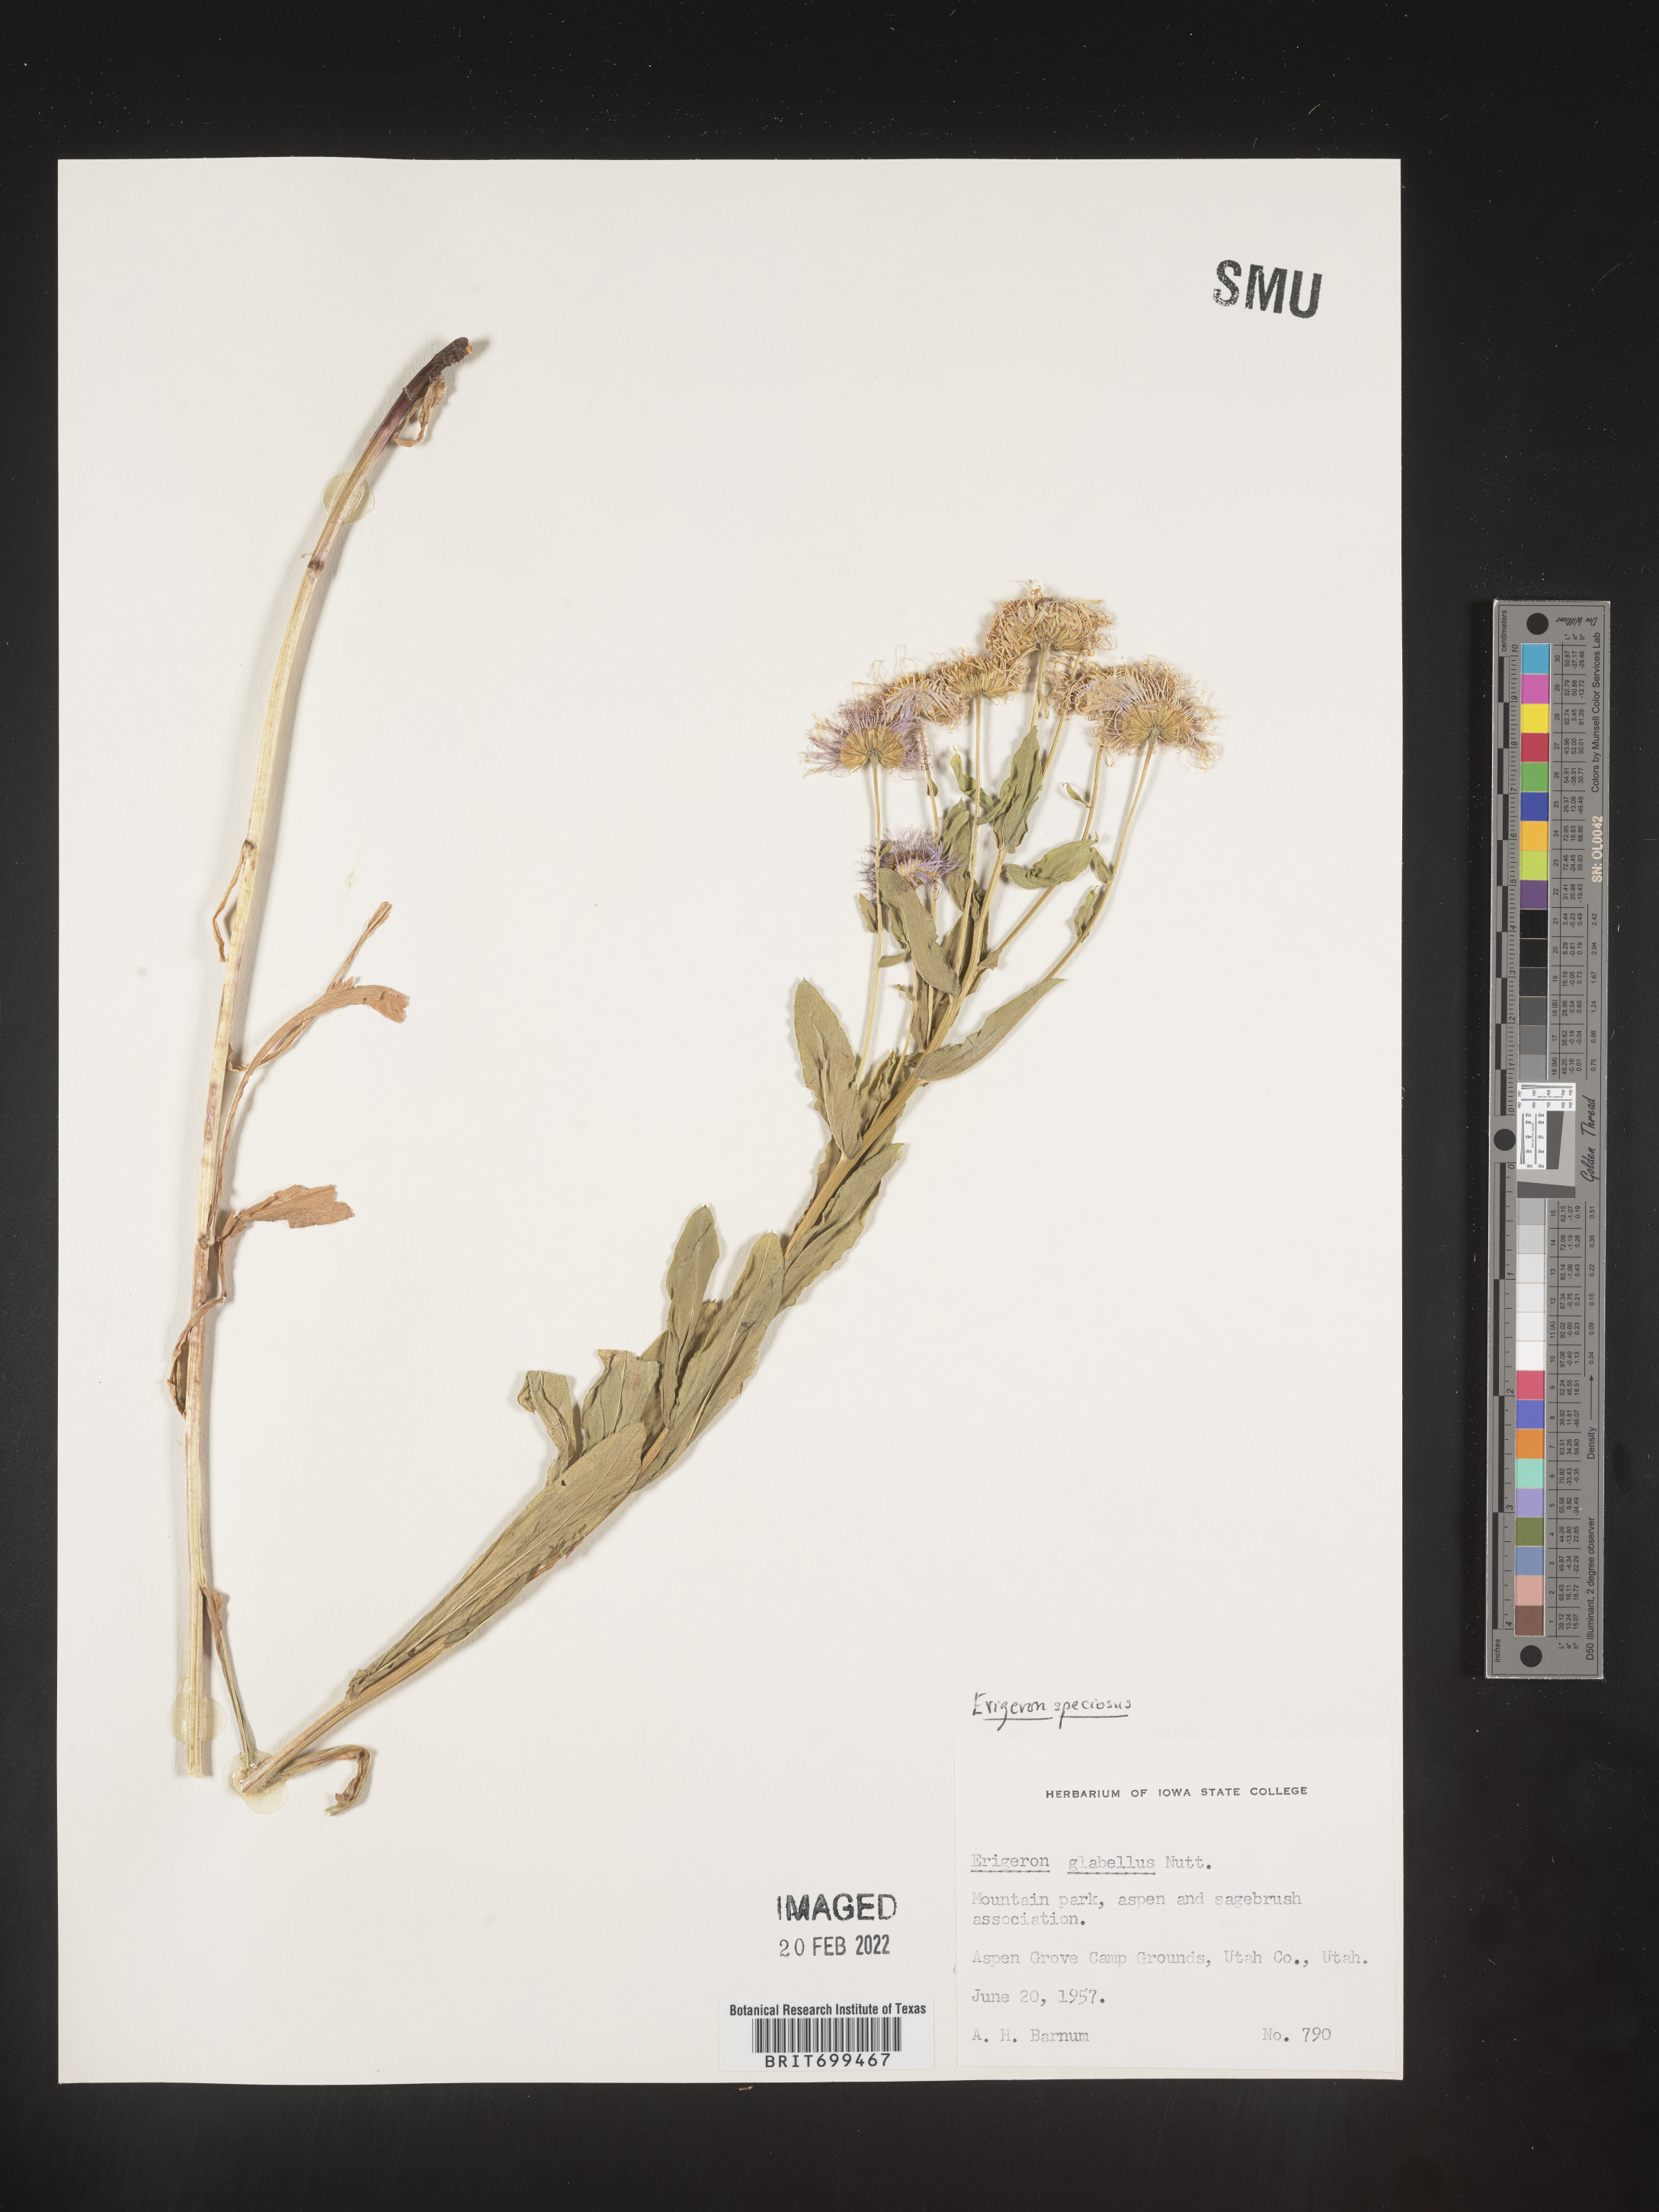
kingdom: Plantae
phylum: Tracheophyta
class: Magnoliopsida
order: Asterales
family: Asteraceae
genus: Erigeron
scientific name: Erigeron speciosus
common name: Aspen fleabane
